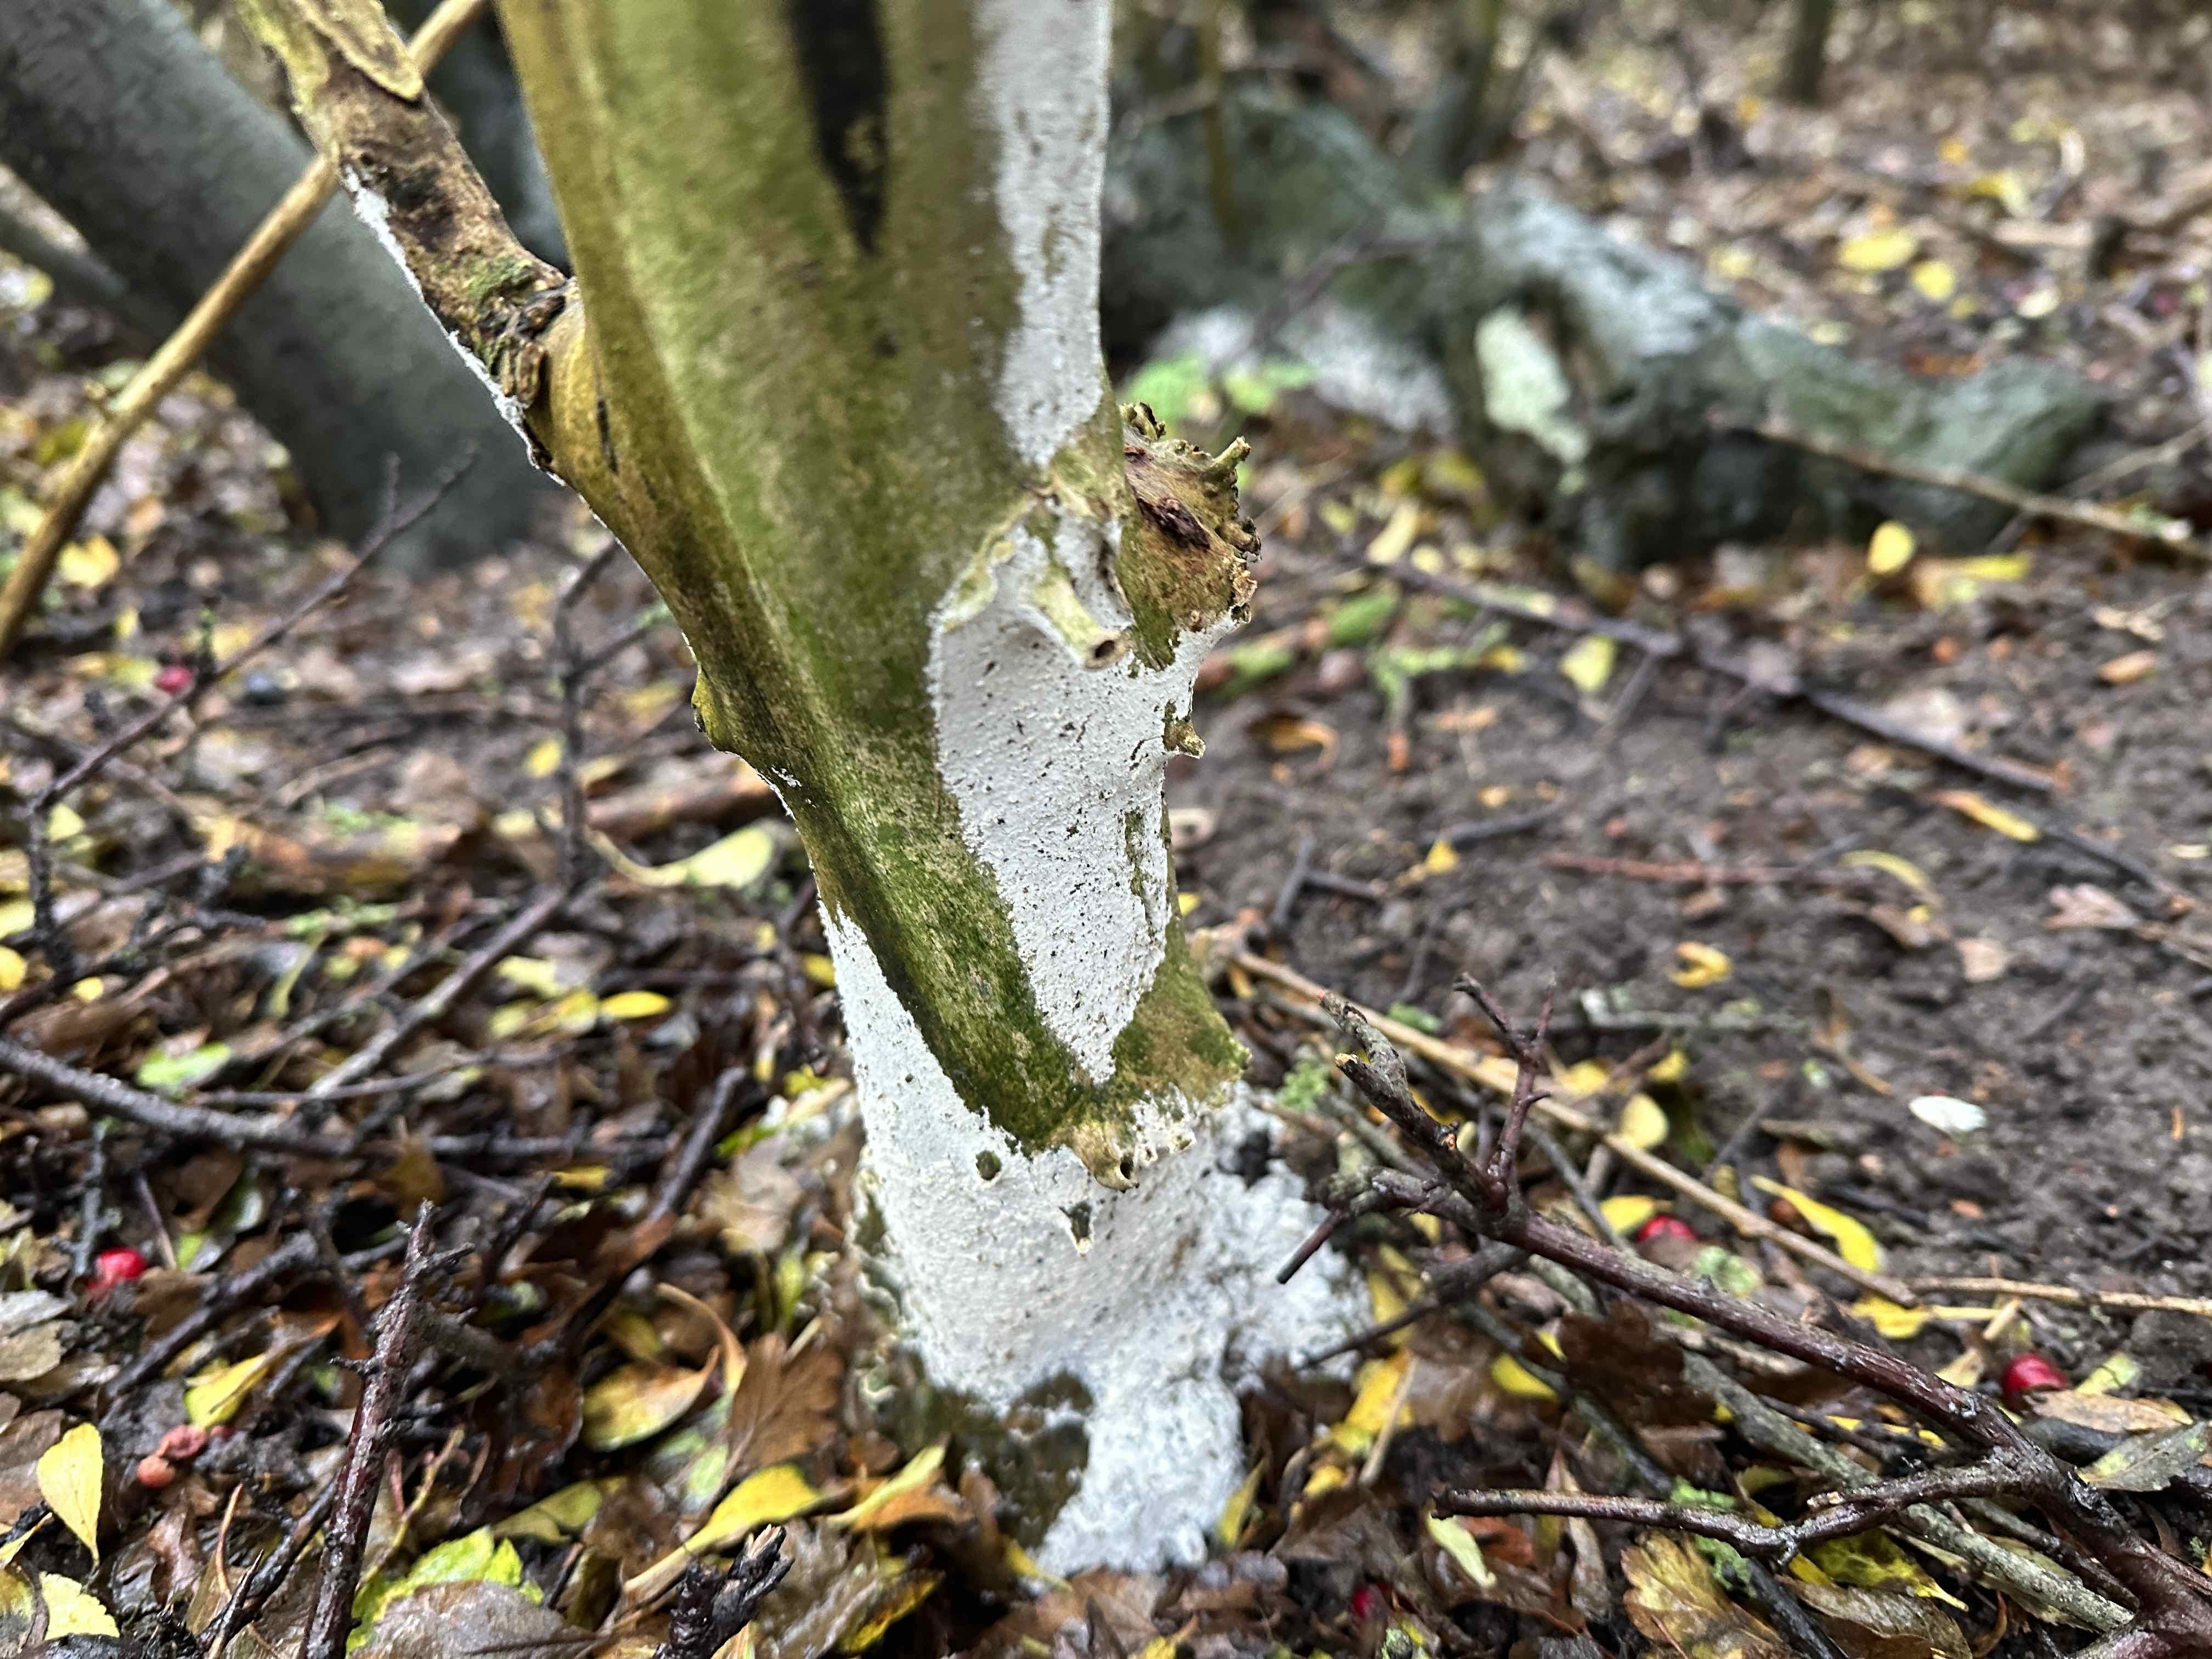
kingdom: Fungi
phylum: Basidiomycota
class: Agaricomycetes
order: Corticiales
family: Corticiaceae
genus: Lyomyces
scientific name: Lyomyces sambuci
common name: almindelig hyldehinde
